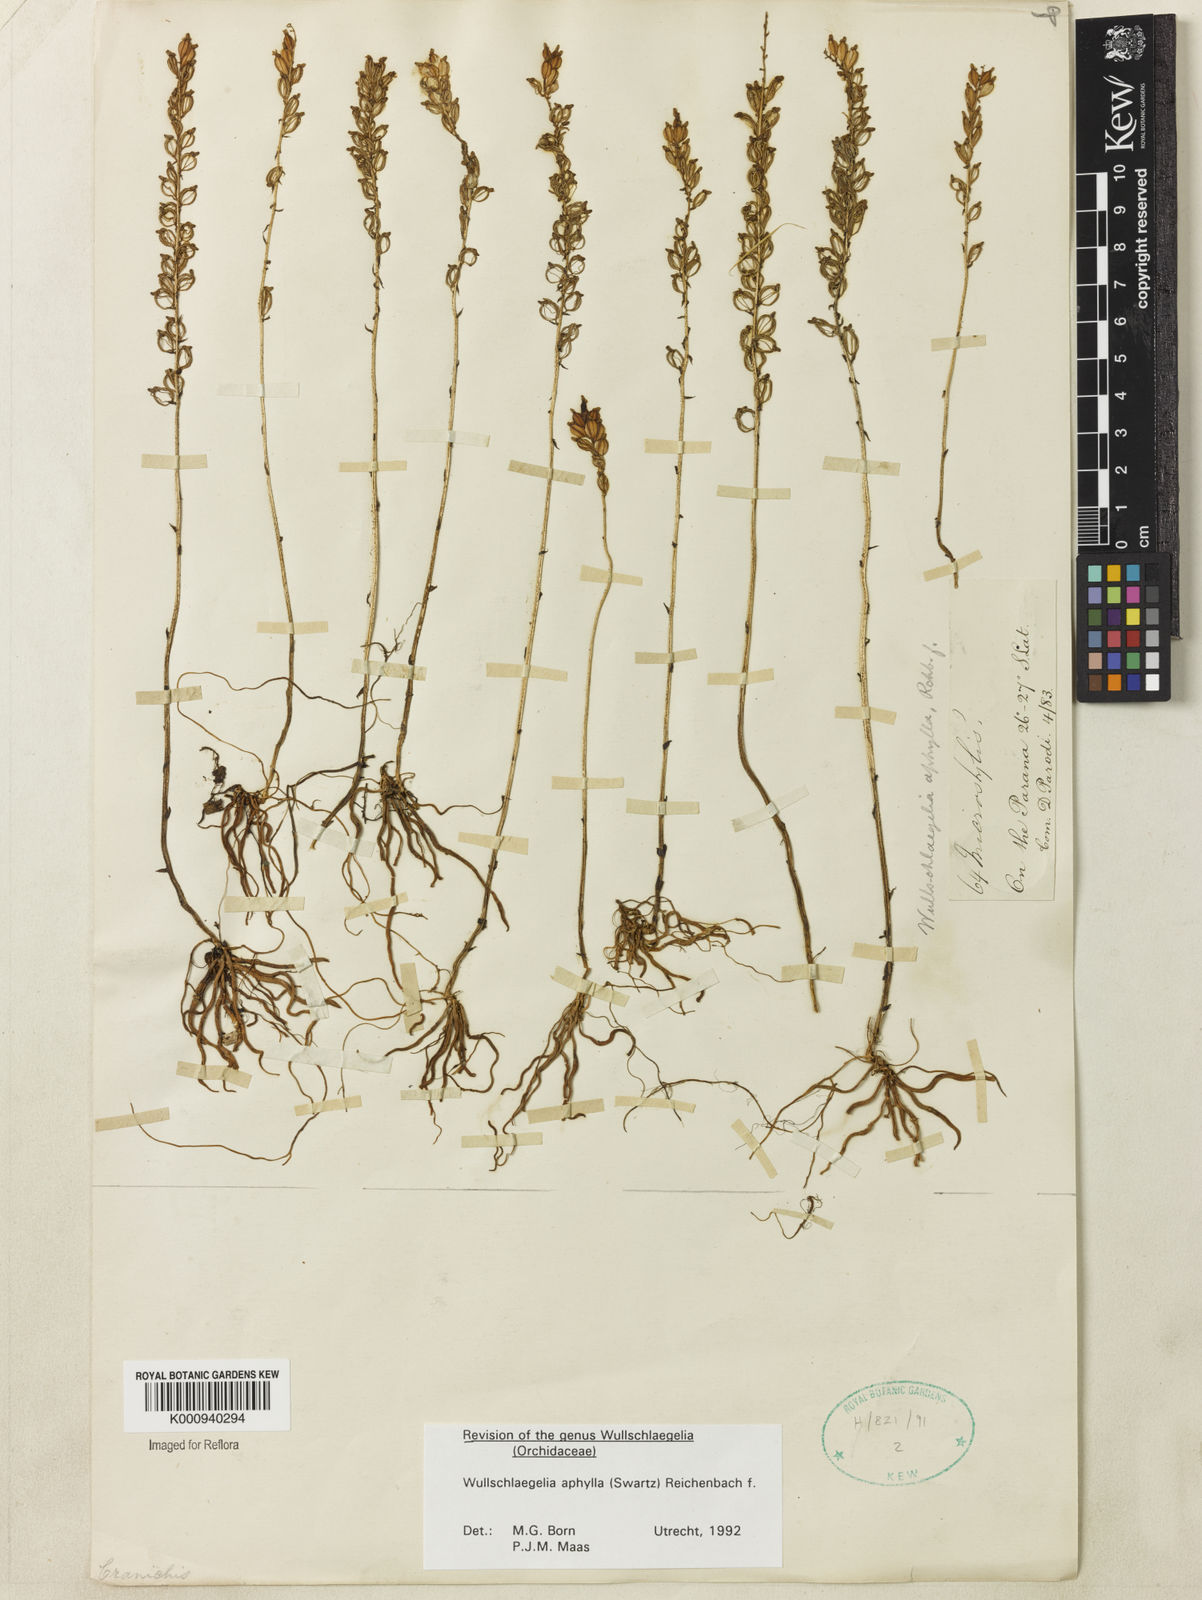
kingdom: Plantae
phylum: Tracheophyta
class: Liliopsida
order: Asparagales
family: Orchidaceae
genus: Wullschlaegelia
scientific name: Wullschlaegelia aphylla
